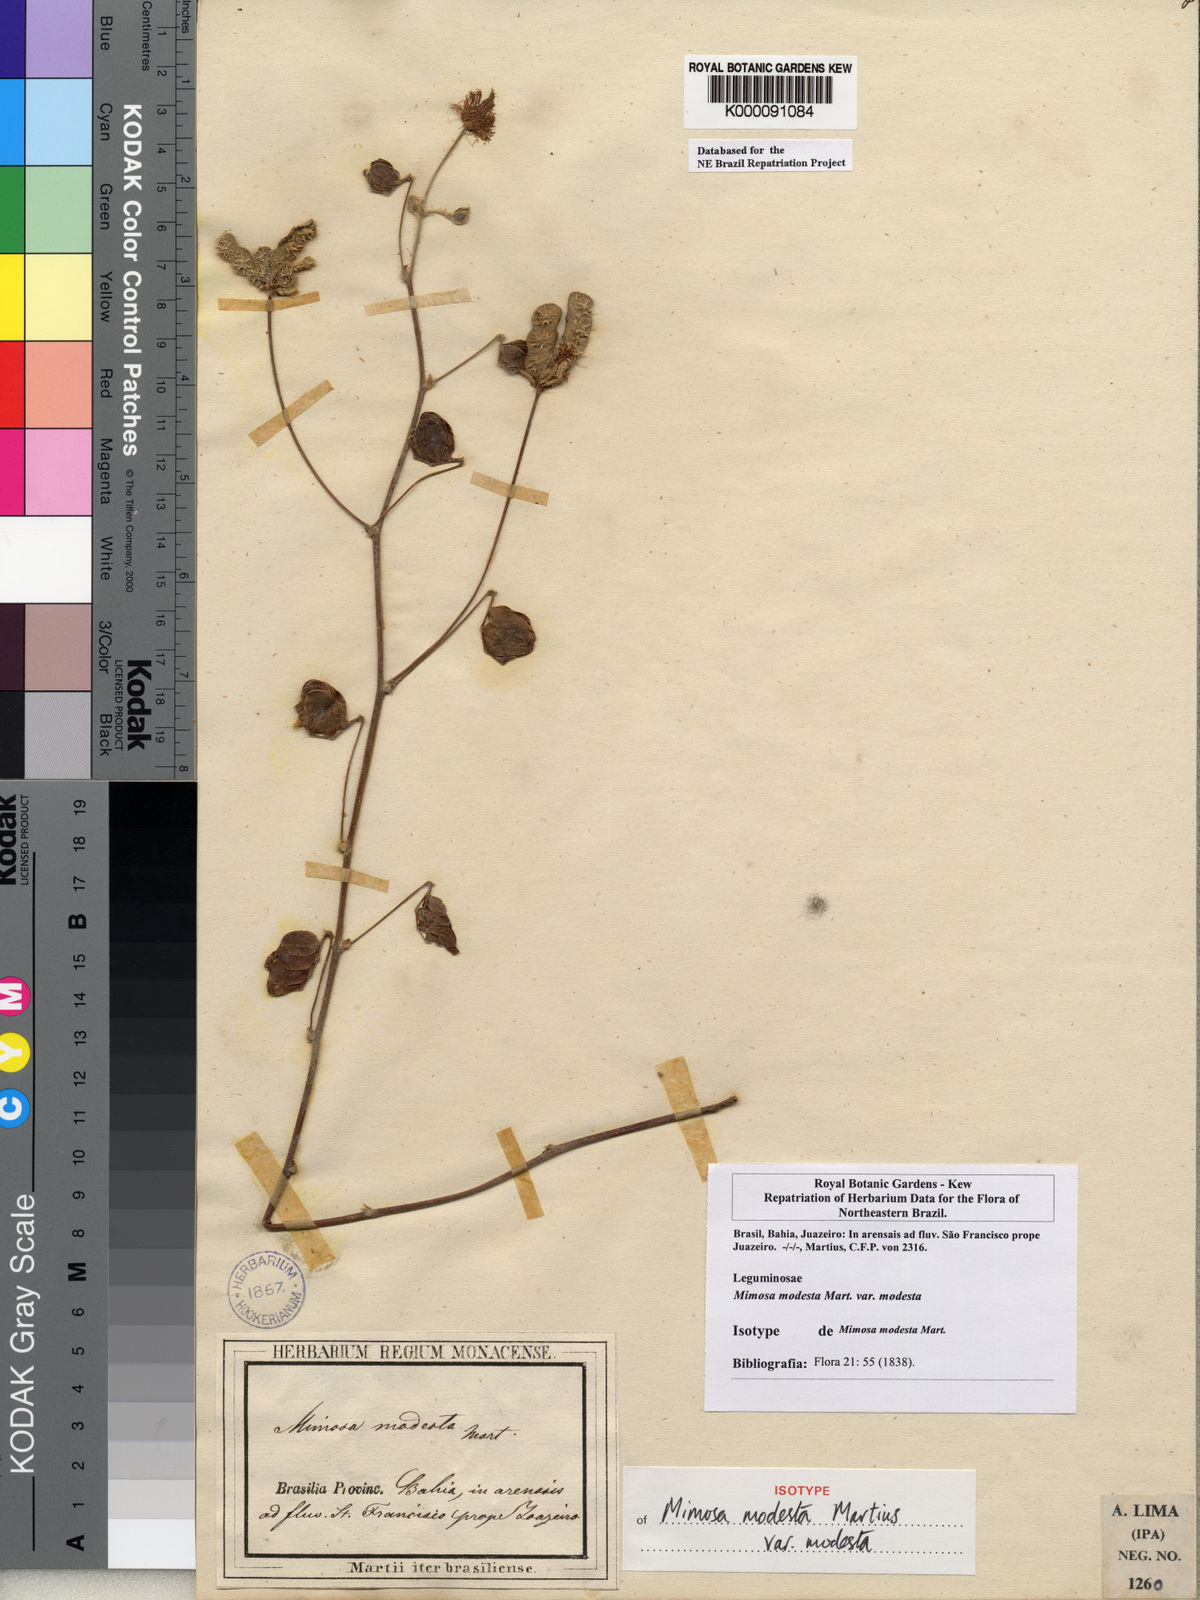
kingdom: Plantae
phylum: Tracheophyta
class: Magnoliopsida
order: Fabales
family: Fabaceae
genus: Mimosa
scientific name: Mimosa modesta
